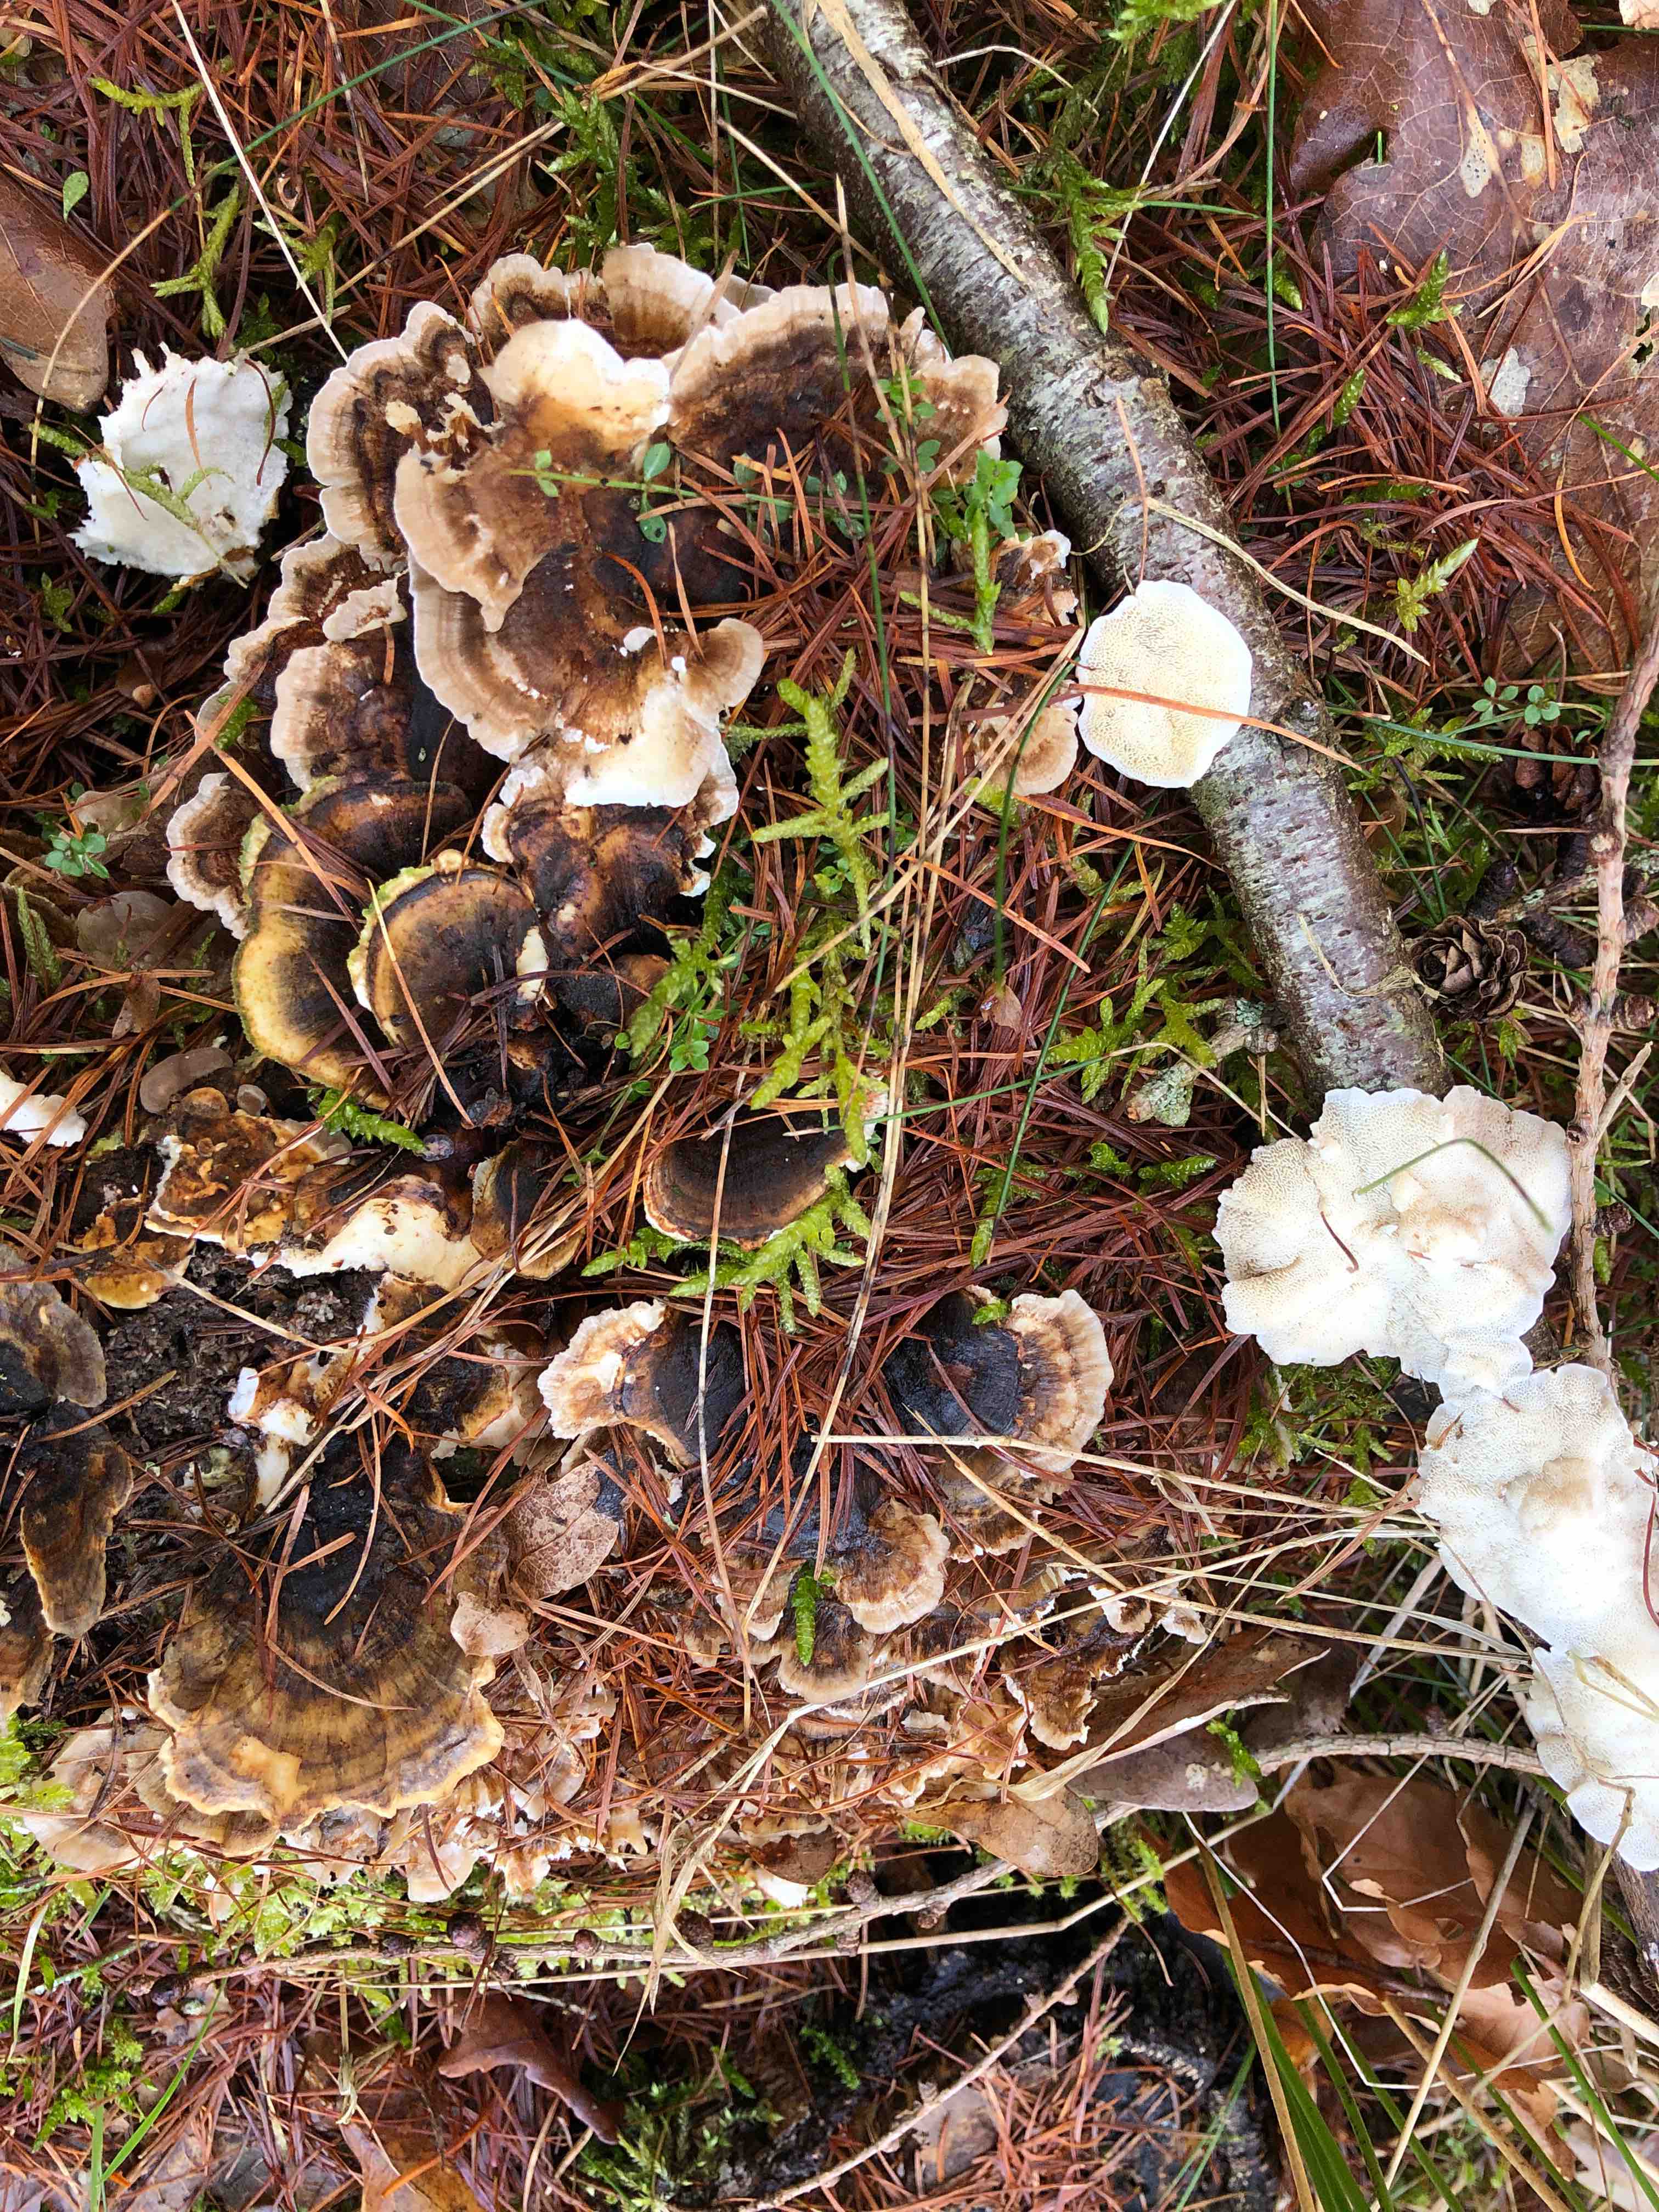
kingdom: Fungi
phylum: Basidiomycota
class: Agaricomycetes
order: Polyporales
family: Polyporaceae
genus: Trametes
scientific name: Trametes versicolor
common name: broget læderporesvamp
